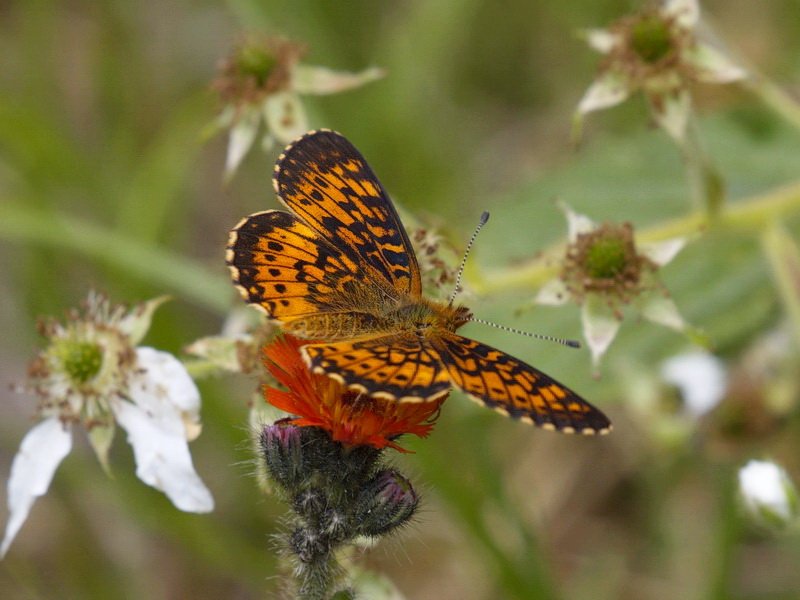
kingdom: Animalia
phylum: Arthropoda
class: Insecta
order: Lepidoptera
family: Nymphalidae
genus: Boloria
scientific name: Boloria selene
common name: Silver-bordered Fritillary
